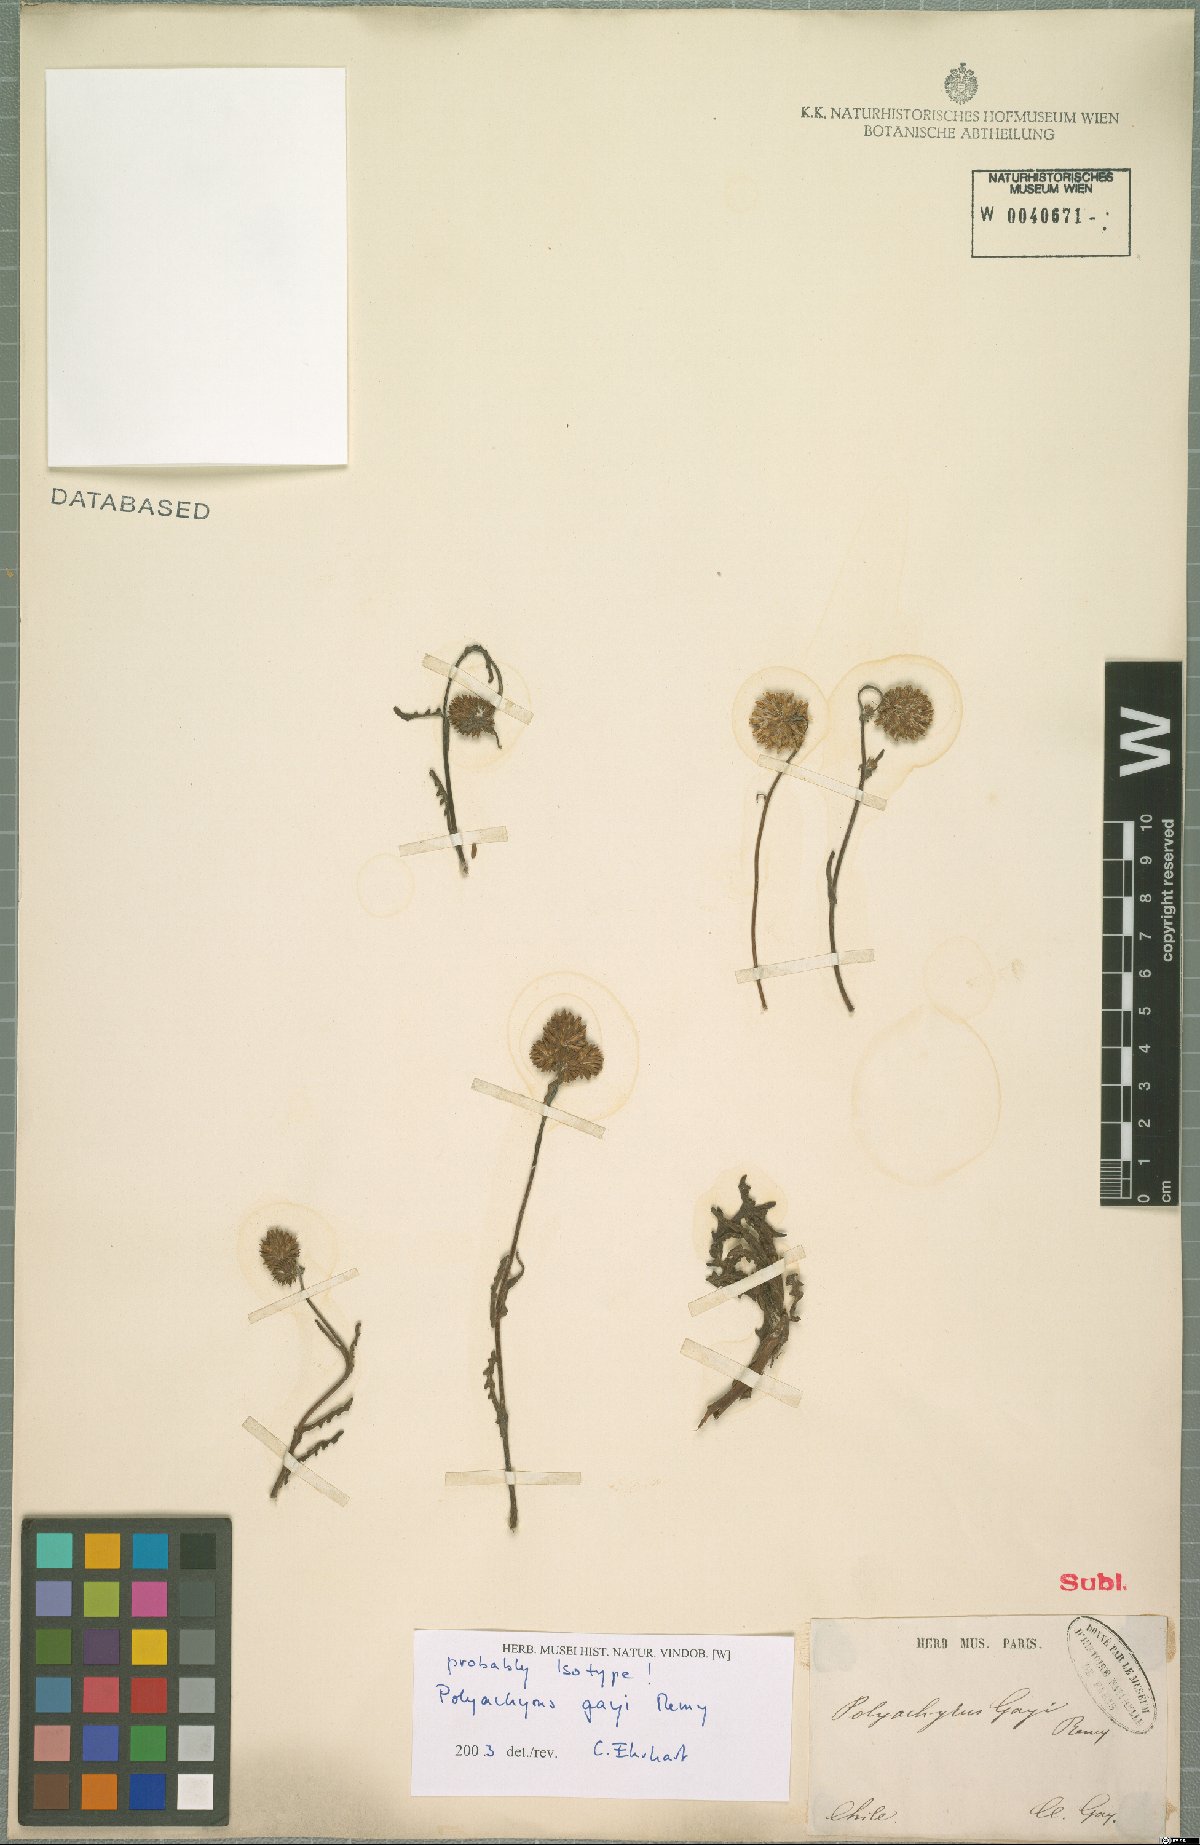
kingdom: Plantae
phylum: Tracheophyta
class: Magnoliopsida
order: Asterales
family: Asteraceae
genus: Polyachyrus
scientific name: Polyachyrus gayi
